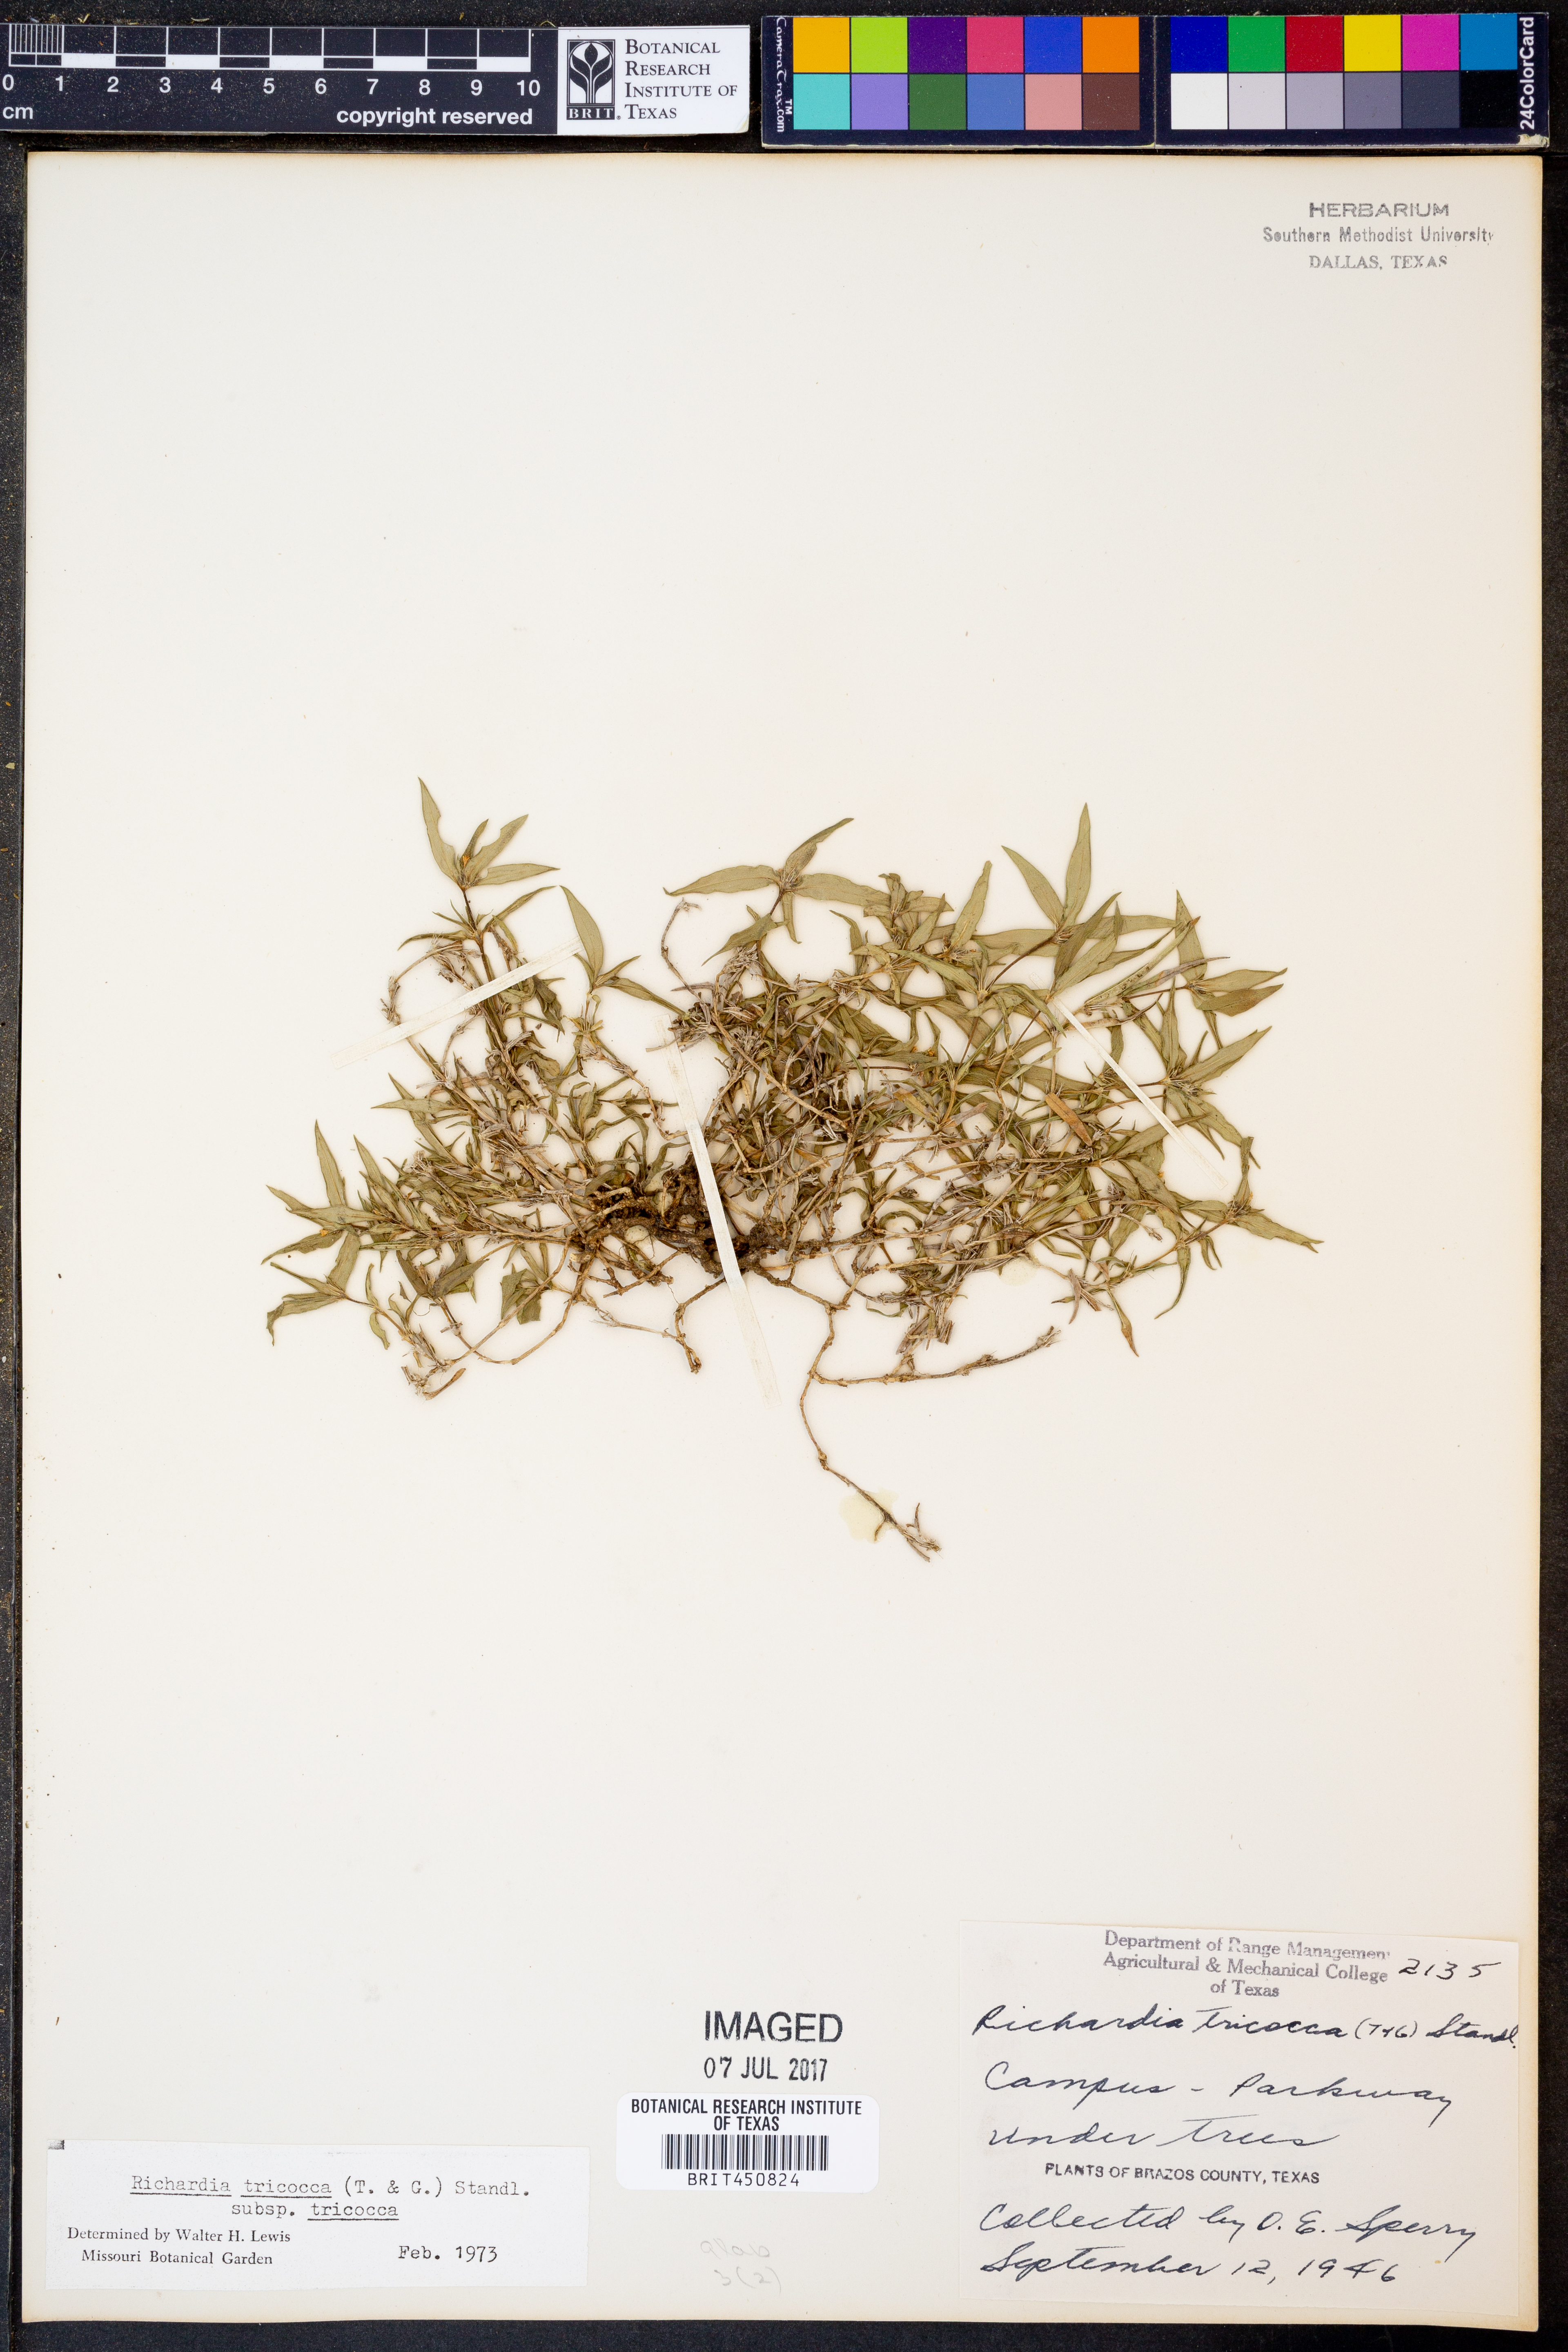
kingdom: Plantae
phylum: Tracheophyta
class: Magnoliopsida
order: Gentianales
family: Rubiaceae
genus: Richardia
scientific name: Richardia tricocca
